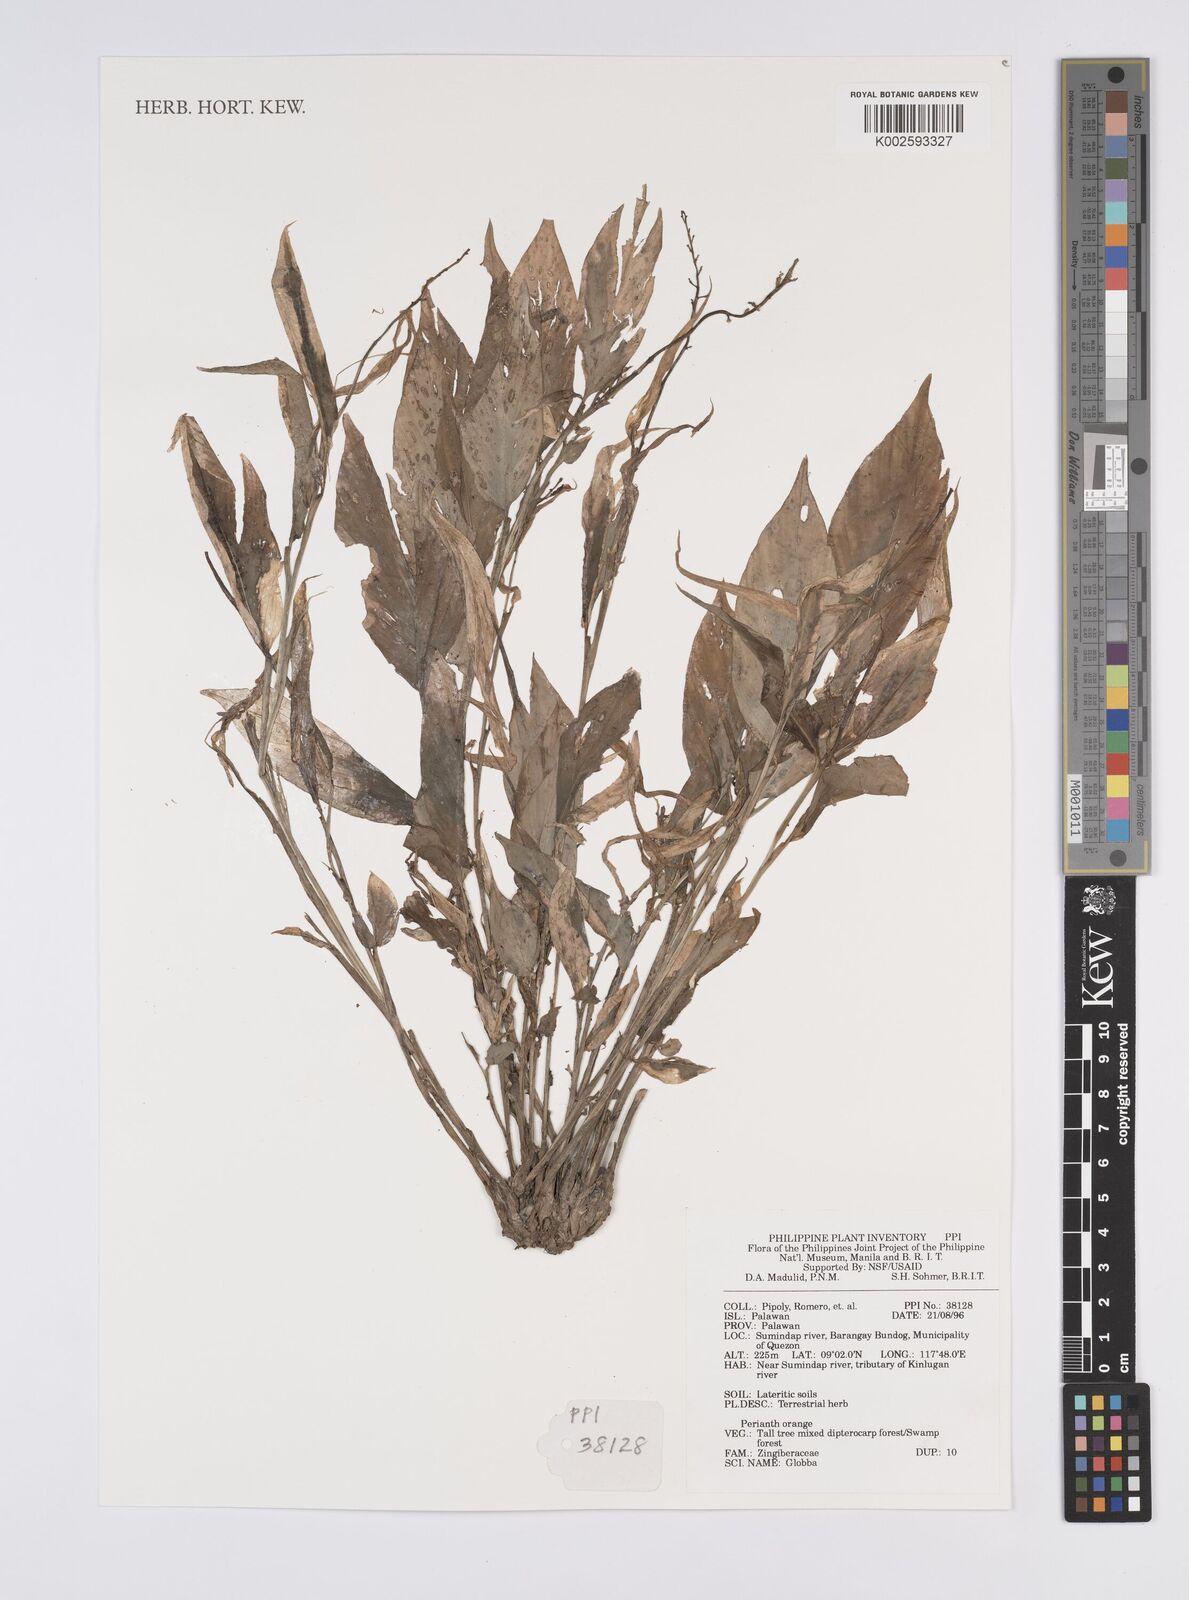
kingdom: Plantae
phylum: Tracheophyta
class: Liliopsida
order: Zingiberales
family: Zingiberaceae
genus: Globba
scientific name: Globba
